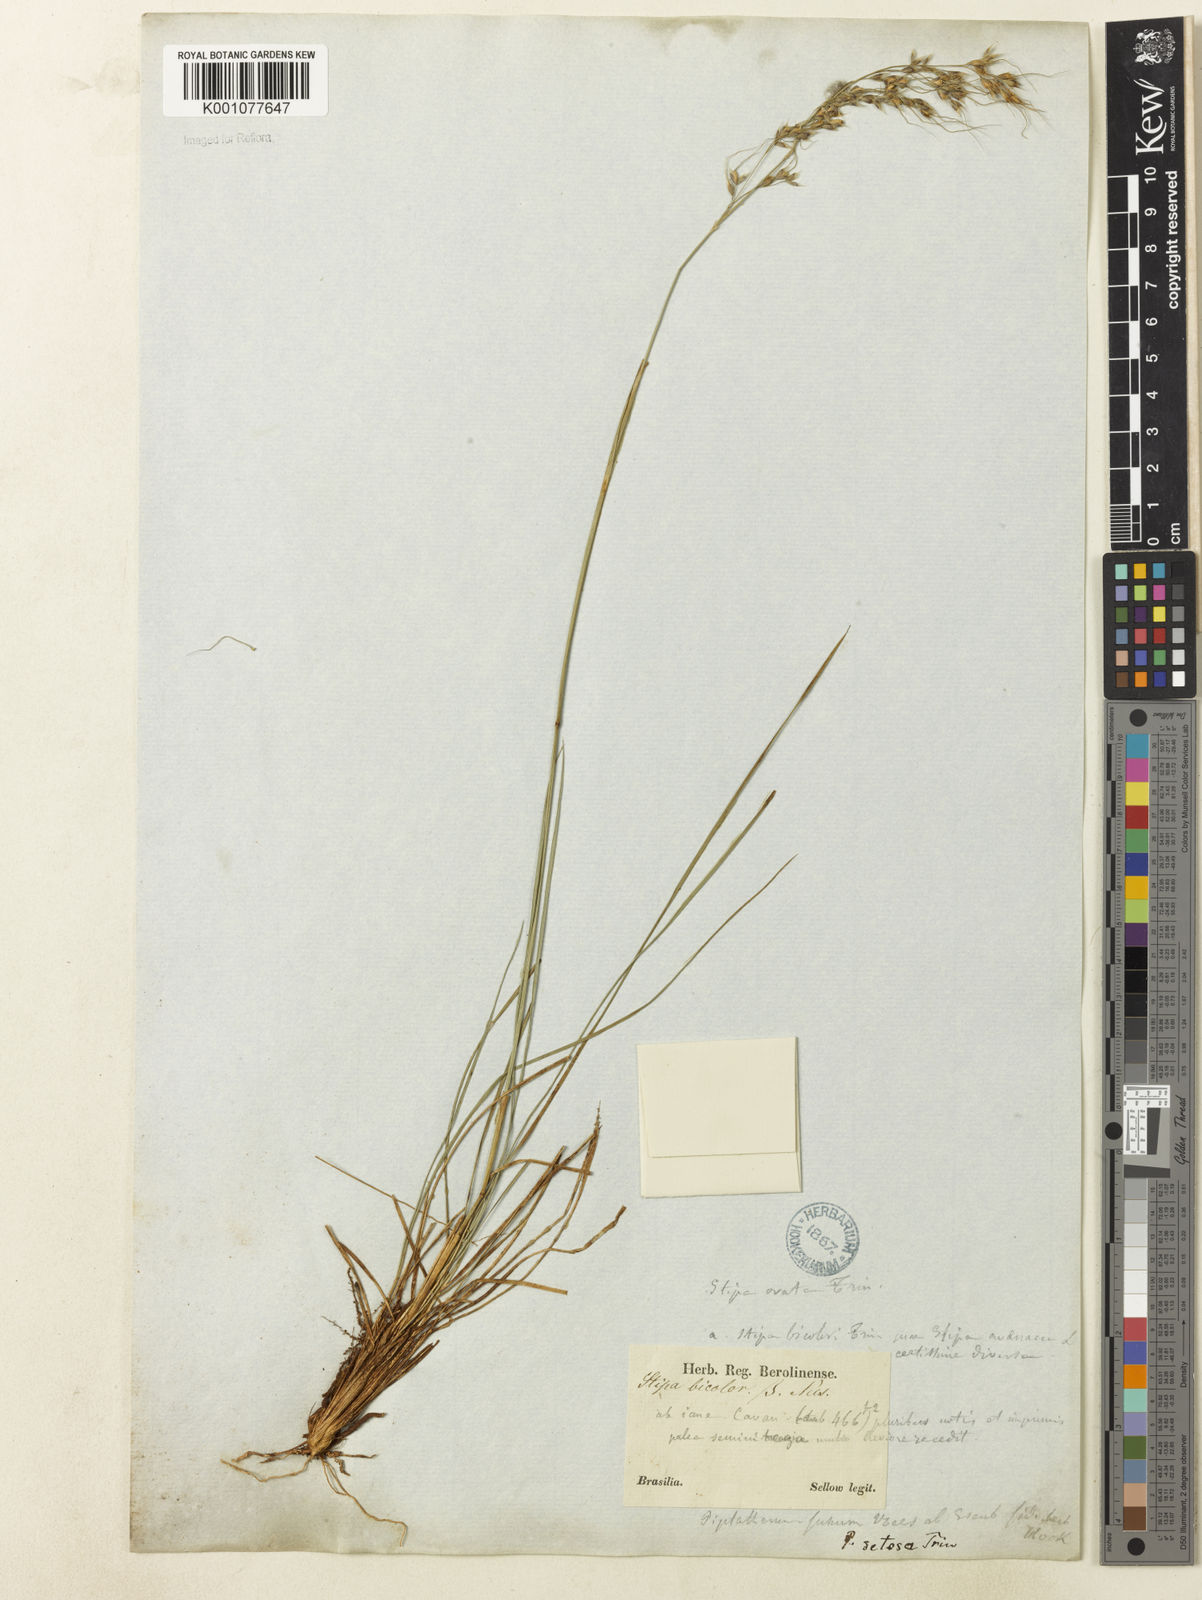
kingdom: Plantae
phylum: Tracheophyta
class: Liliopsida
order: Poales
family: Poaceae
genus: Piptochaetium
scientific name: Piptochaetium bicolor
